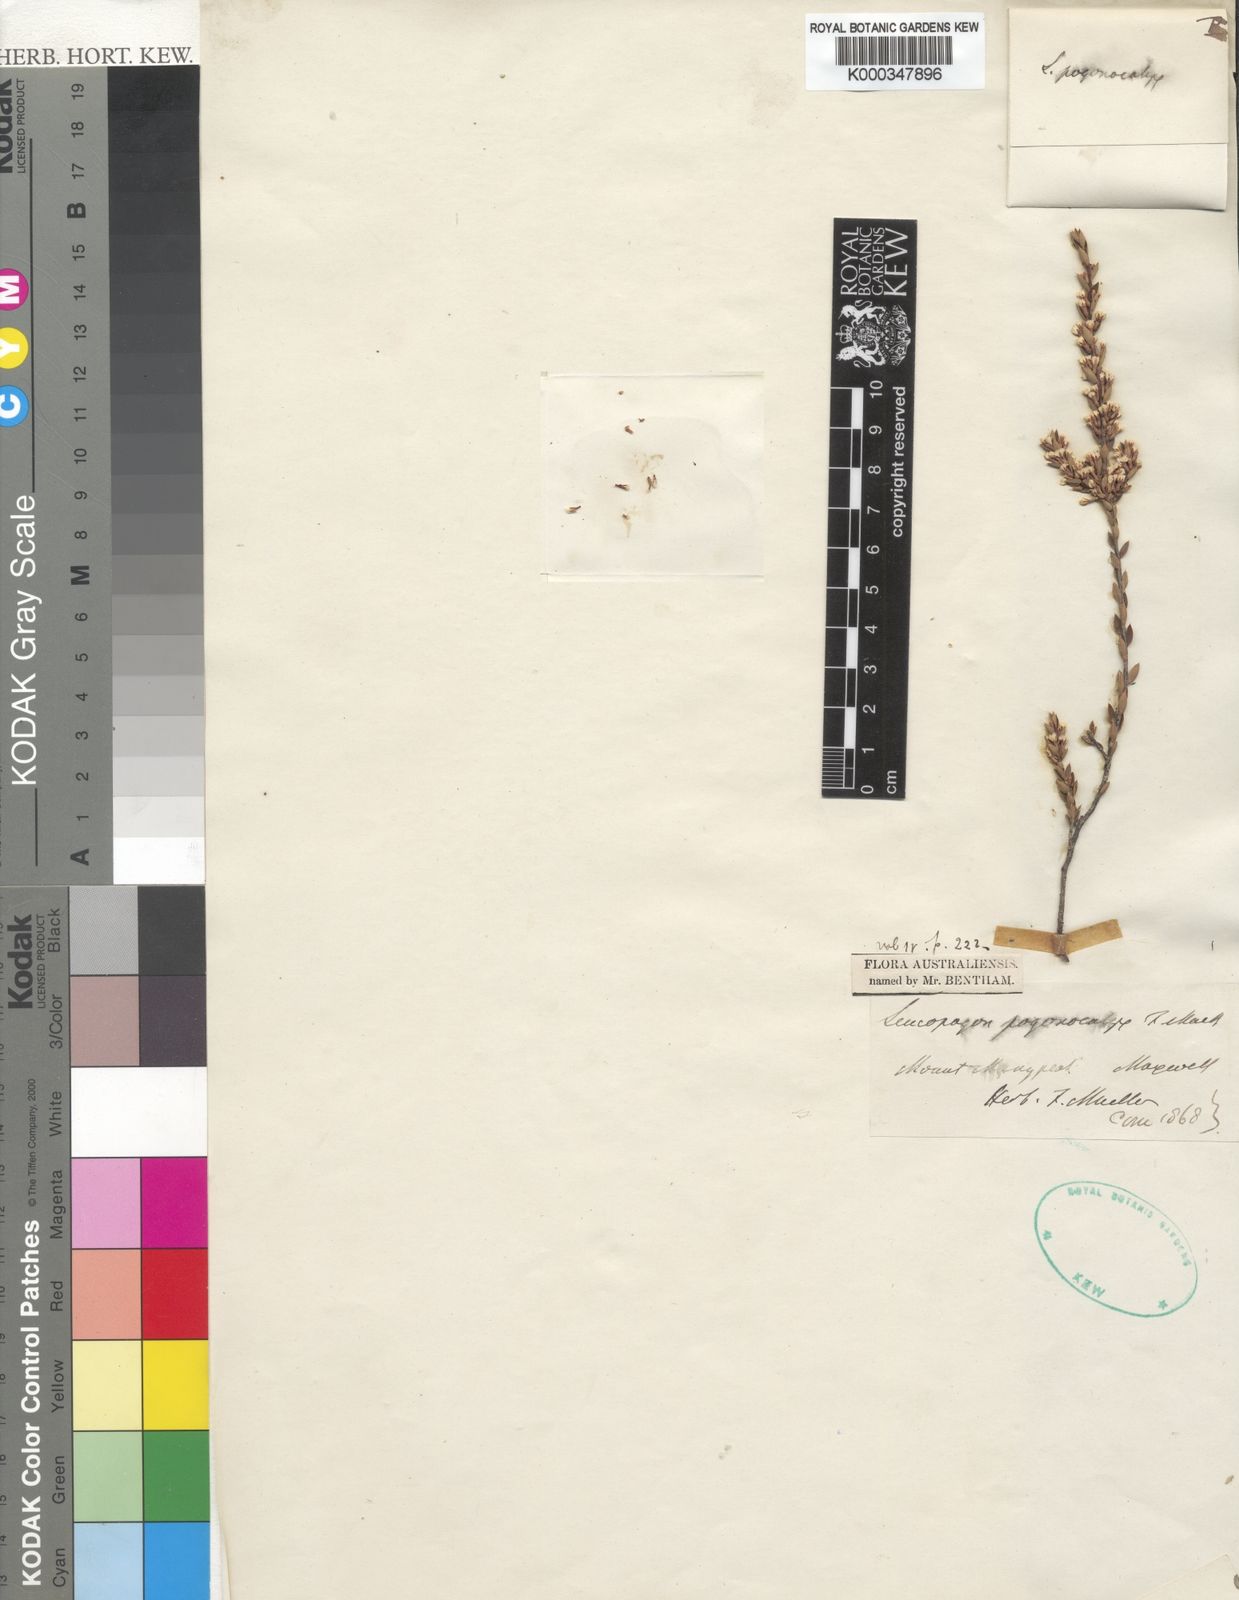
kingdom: Plantae
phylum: Tracheophyta
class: Magnoliopsida
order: Ericales
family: Ericaceae
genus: Styphelia
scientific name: Styphelia pogonocalyx
